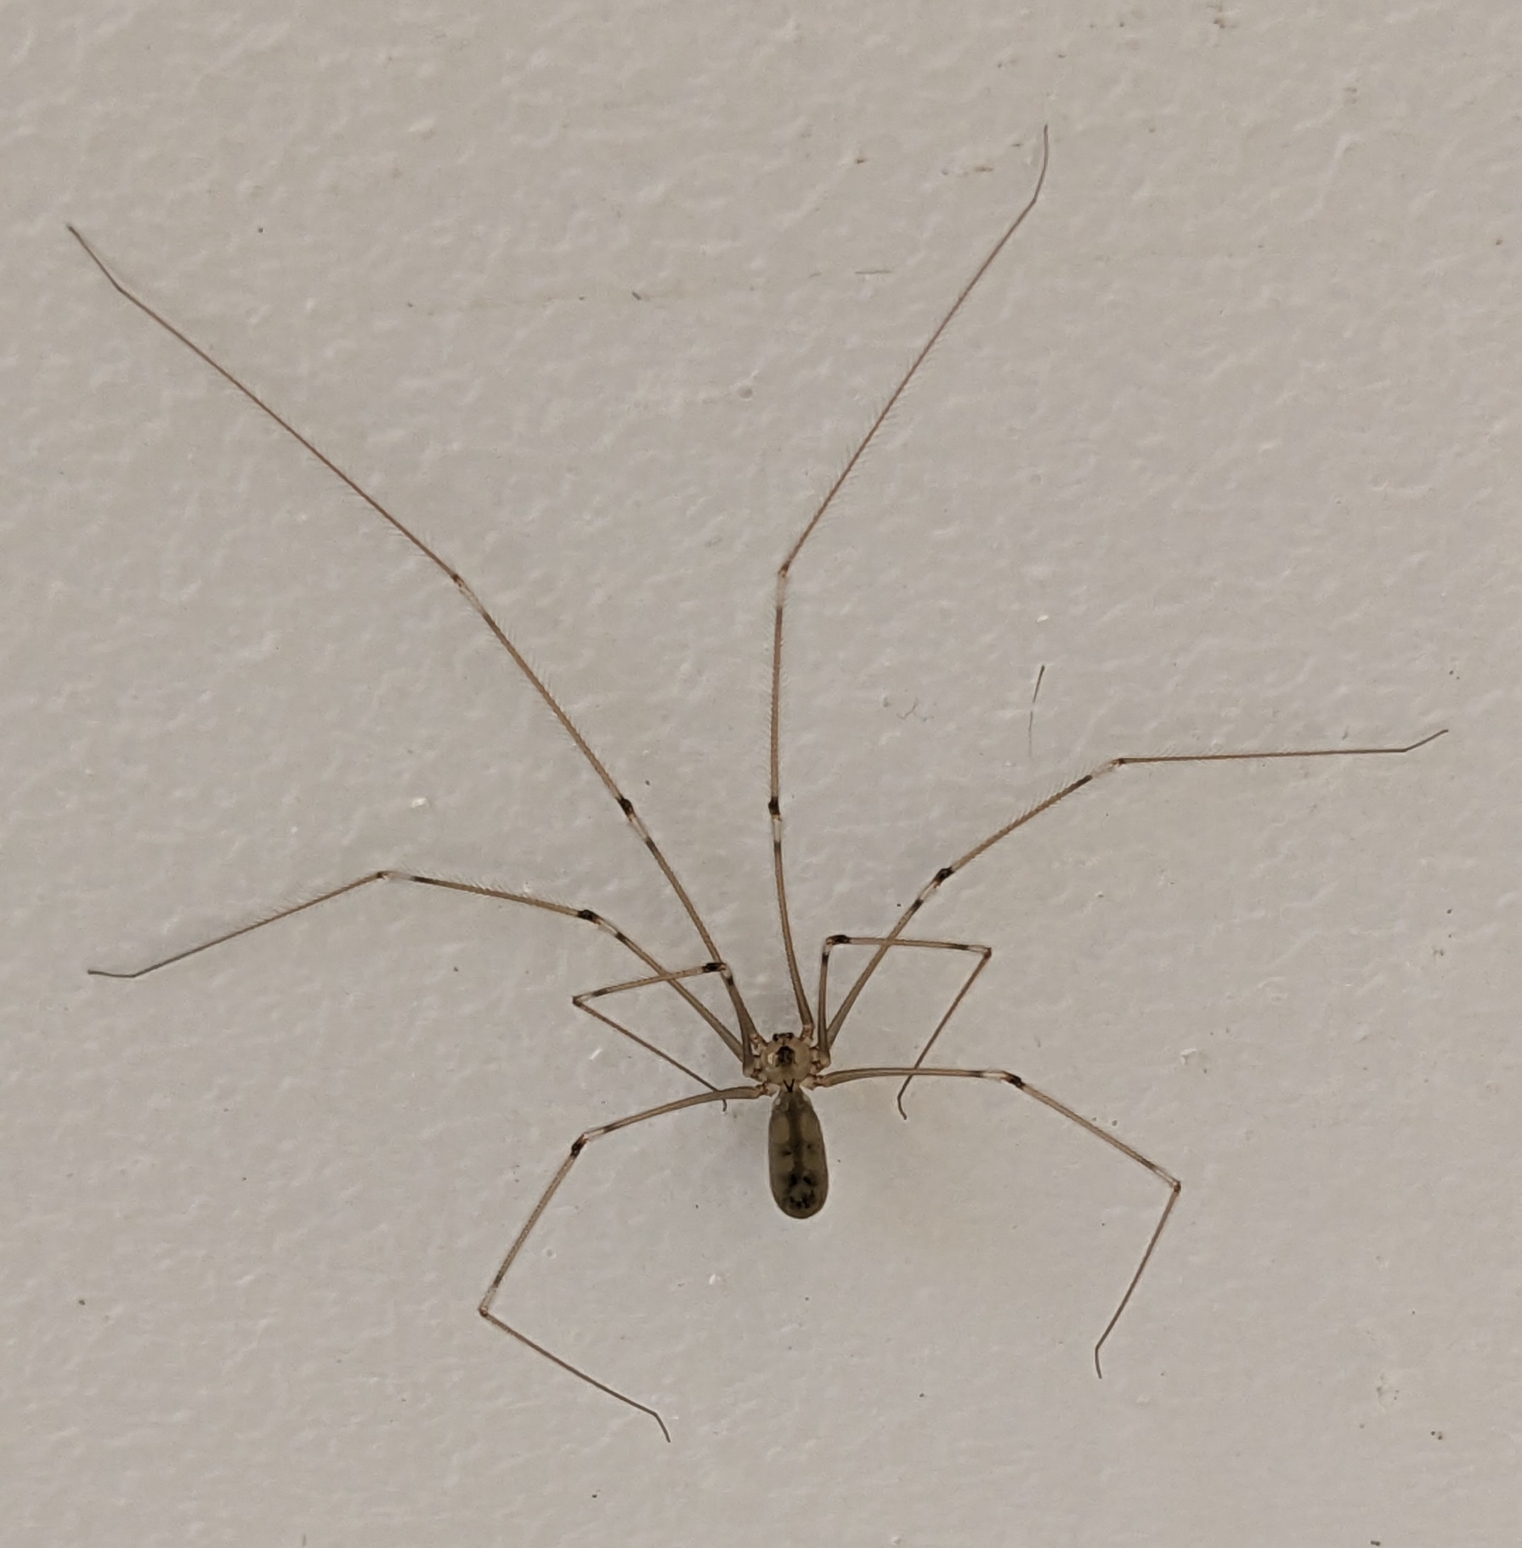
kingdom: Animalia
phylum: Arthropoda
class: Arachnida
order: Araneae
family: Pholcidae
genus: Pholcus
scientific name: Pholcus phalangioides
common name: Mejeredderkop
